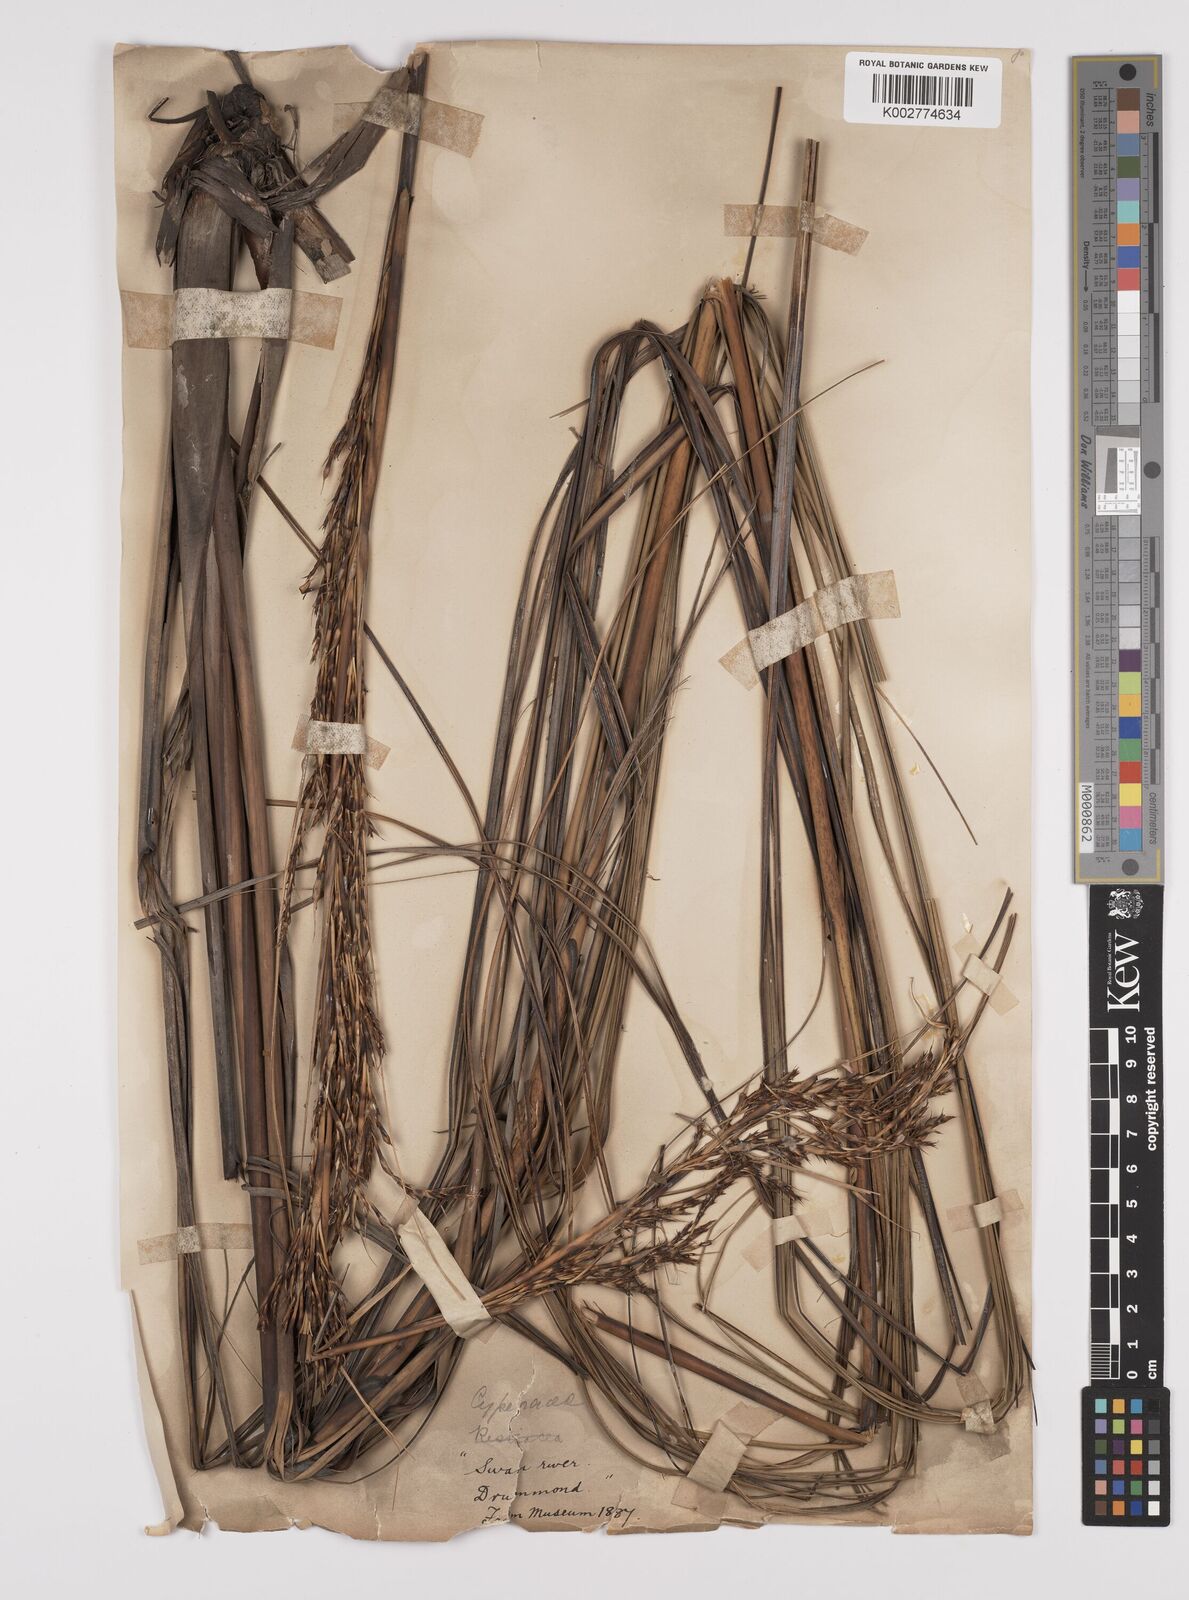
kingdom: Plantae
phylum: Tracheophyta
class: Liliopsida
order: Poales
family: Cyperaceae
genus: Gahnia
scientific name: Gahnia decomposita
